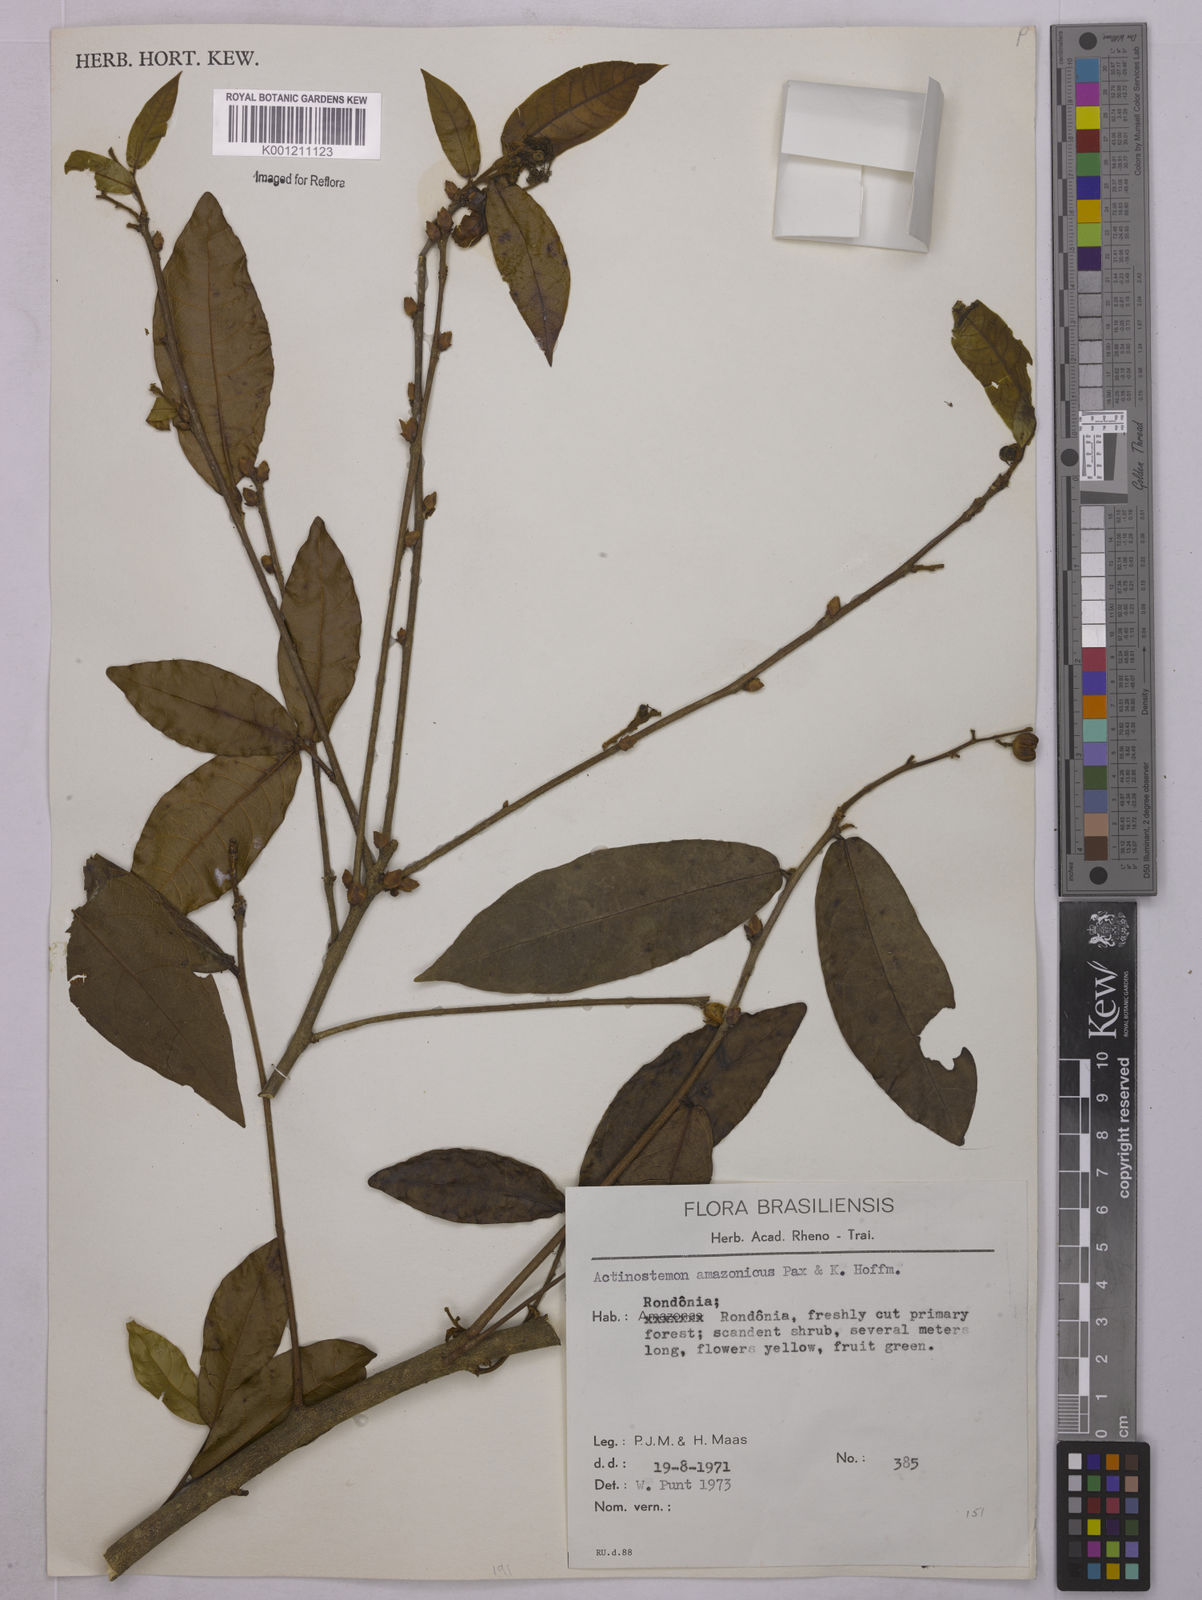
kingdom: Plantae
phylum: Tracheophyta
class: Magnoliopsida
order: Malpighiales
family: Euphorbiaceae
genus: Actinostemon
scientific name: Actinostemon amazonicus
